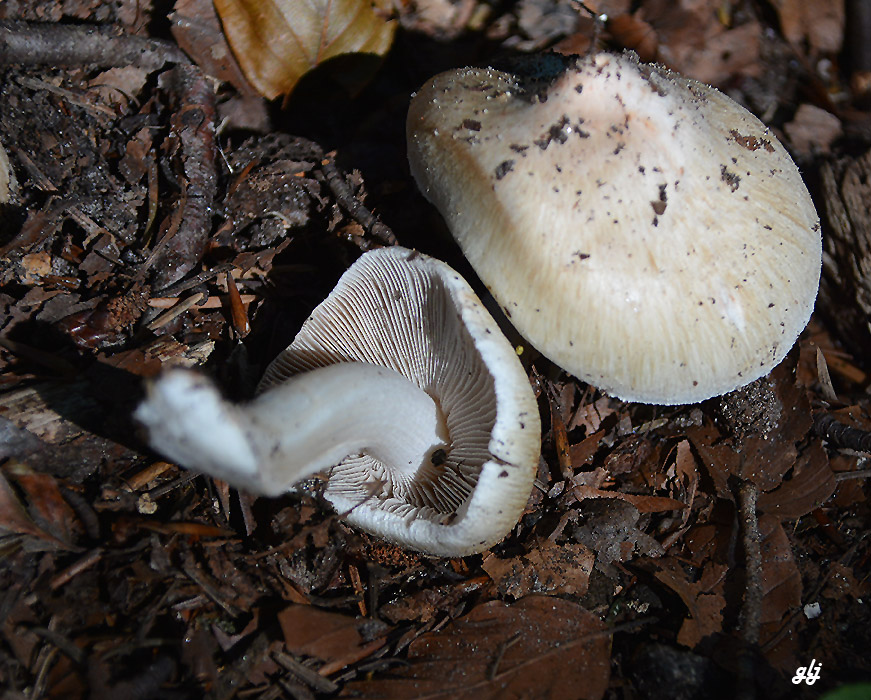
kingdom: Fungi
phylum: Basidiomycota
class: Agaricomycetes
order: Agaricales
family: Inocybaceae
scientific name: Inocybaceae
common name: trævlhatfamilien
